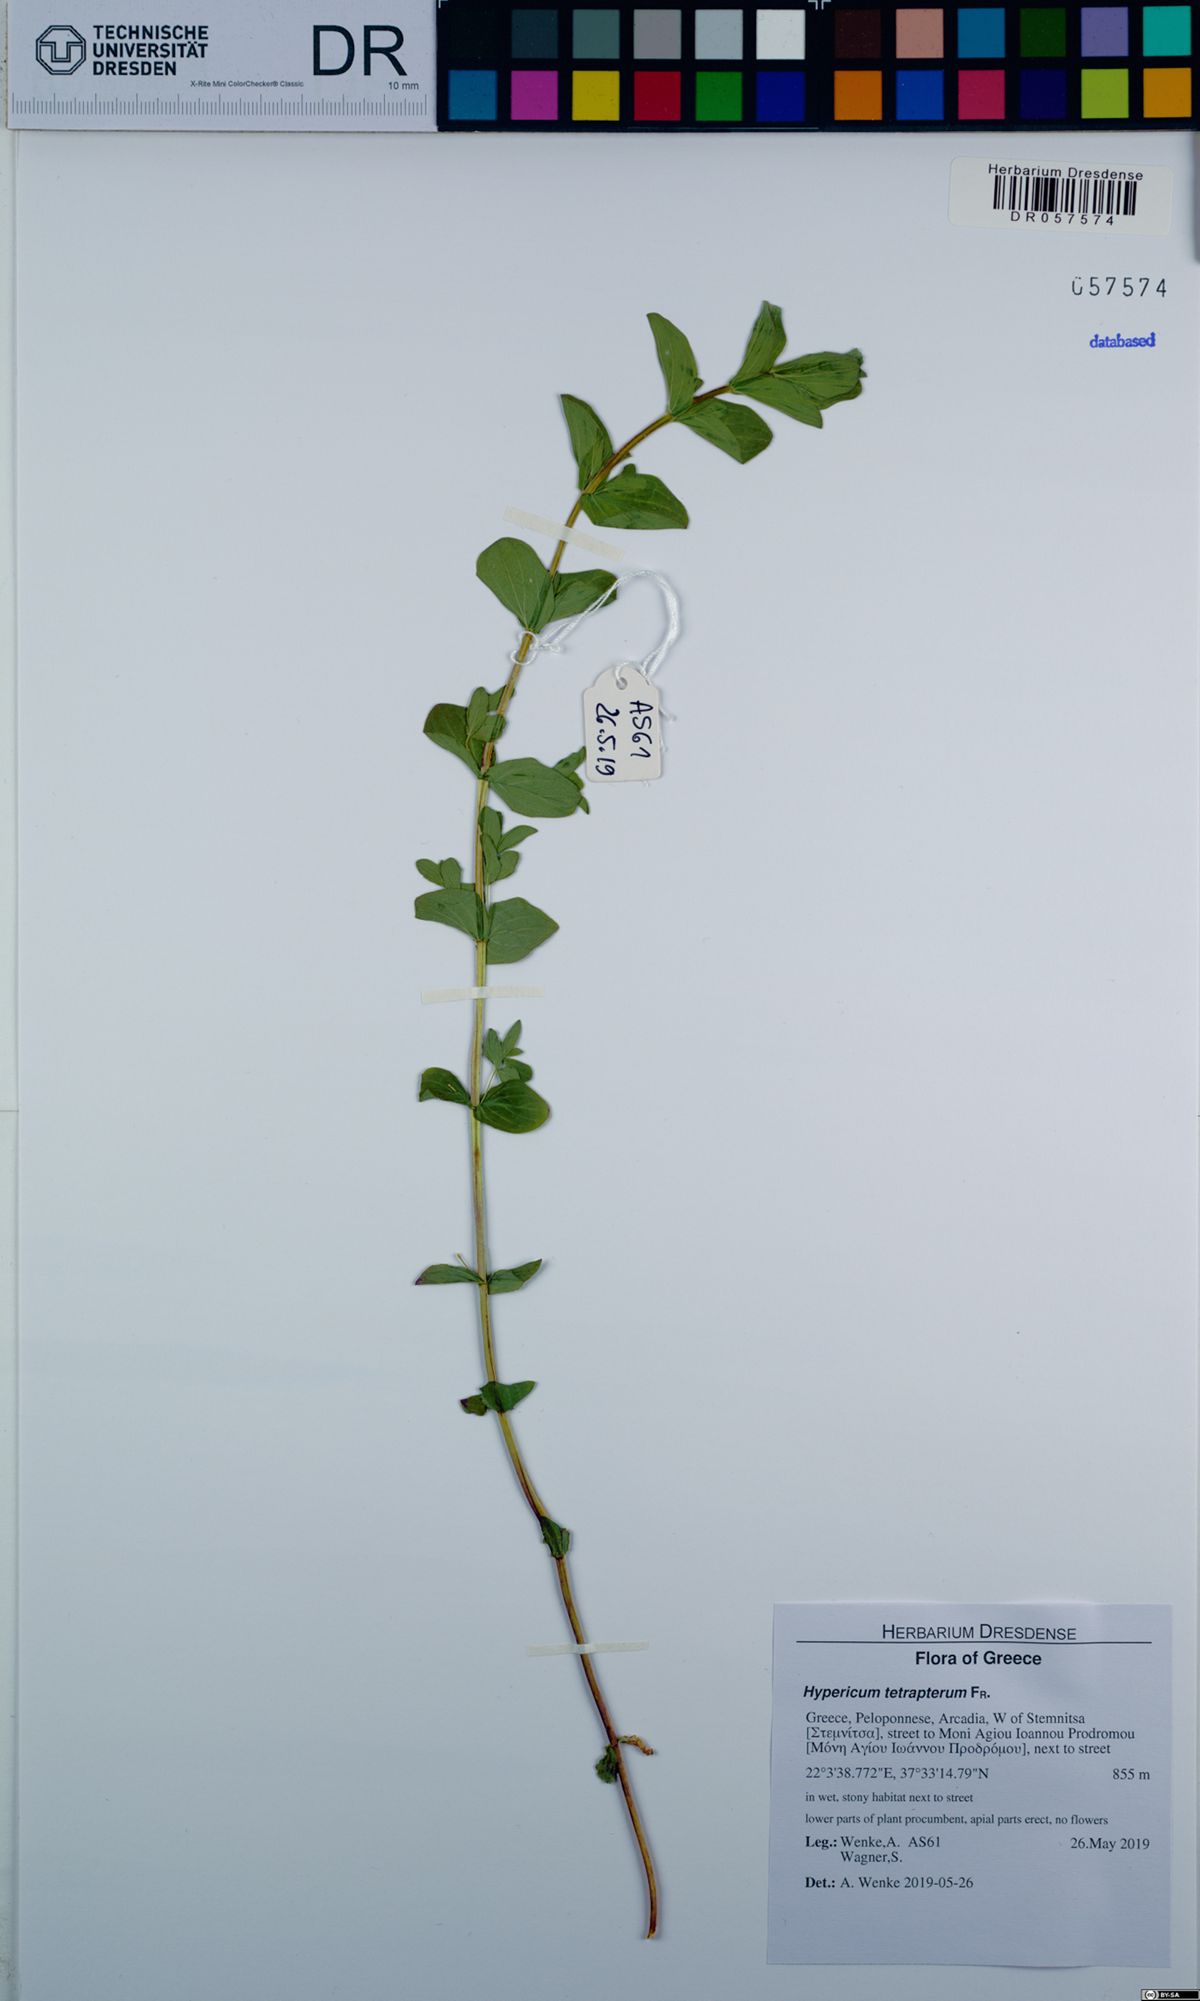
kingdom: Plantae
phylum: Tracheophyta
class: Magnoliopsida
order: Malpighiales
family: Hypericaceae
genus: Hypericum
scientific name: Hypericum tetrapterum
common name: Square-stalked st. john's-wort
